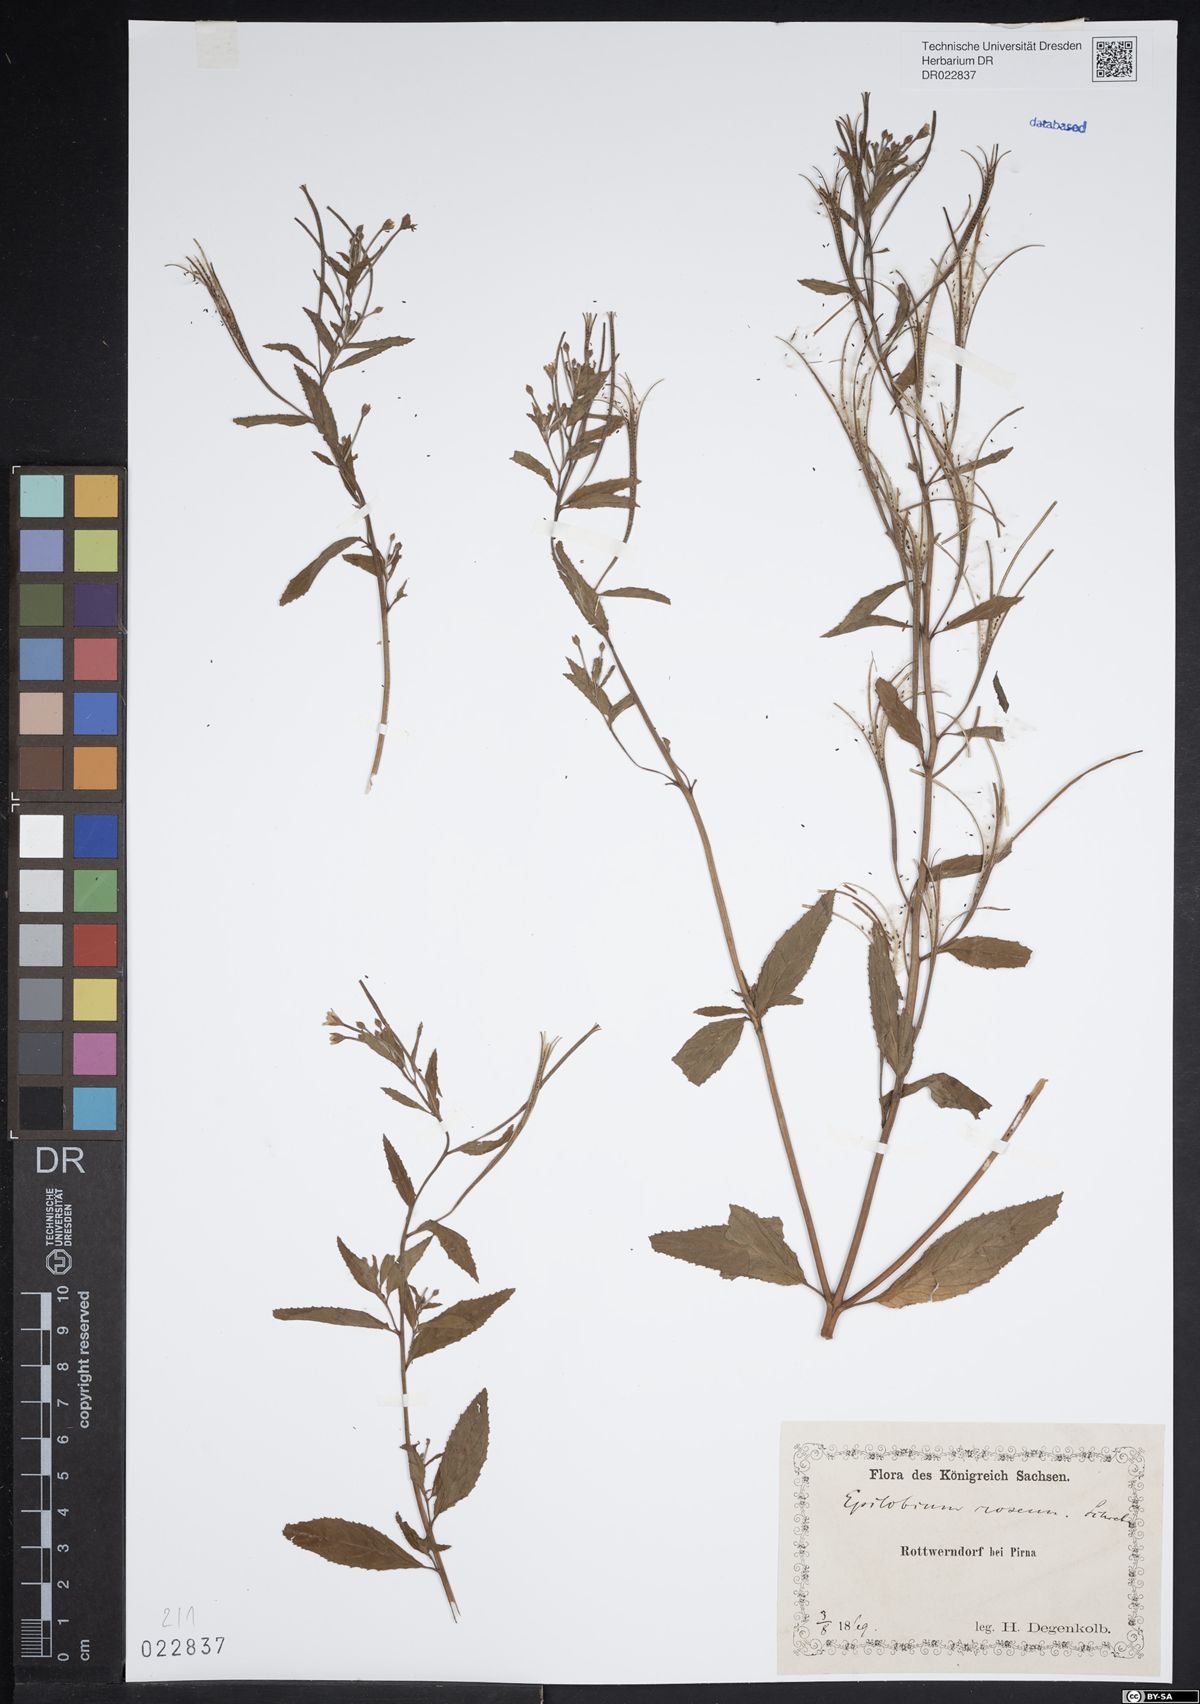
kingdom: Plantae
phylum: Tracheophyta
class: Magnoliopsida
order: Myrtales
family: Onagraceae
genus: Epilobium
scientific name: Epilobium roseum
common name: Pale willowherb
